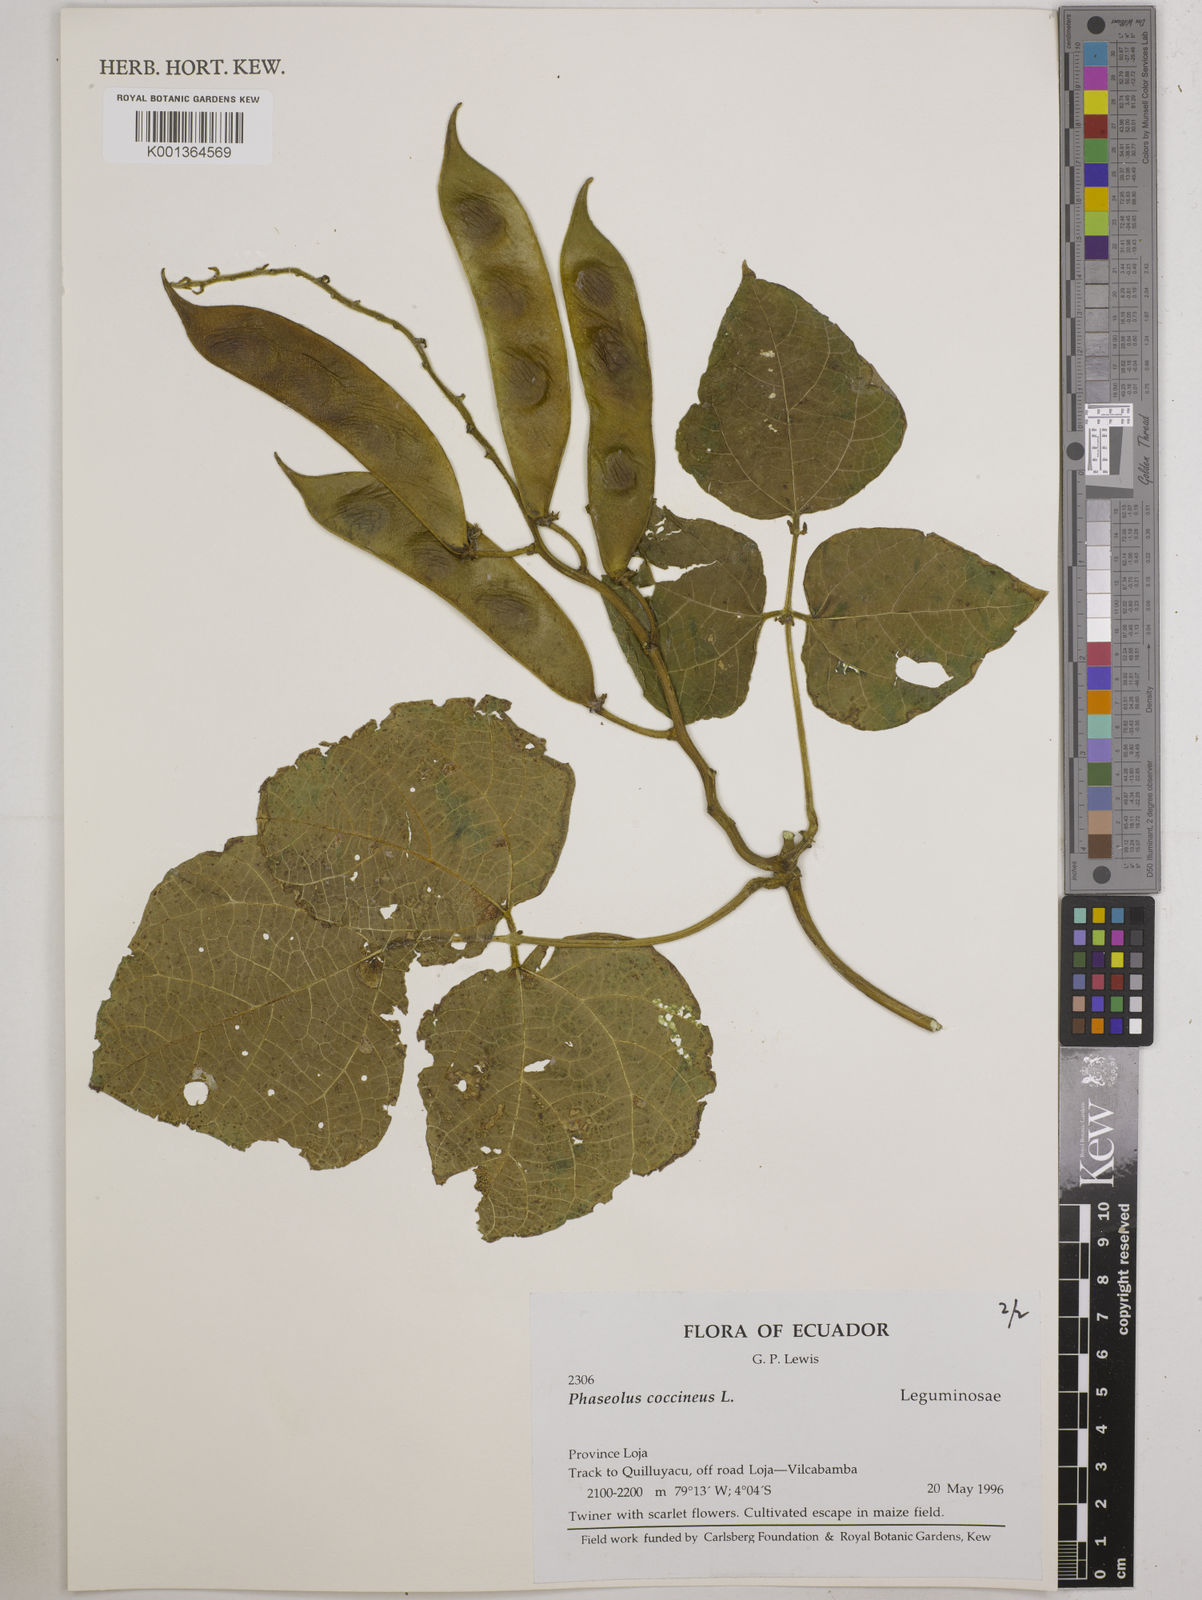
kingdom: Plantae
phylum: Tracheophyta
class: Magnoliopsida
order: Fabales
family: Fabaceae
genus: Phaseolus
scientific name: Phaseolus coccineus
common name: Runner bean
